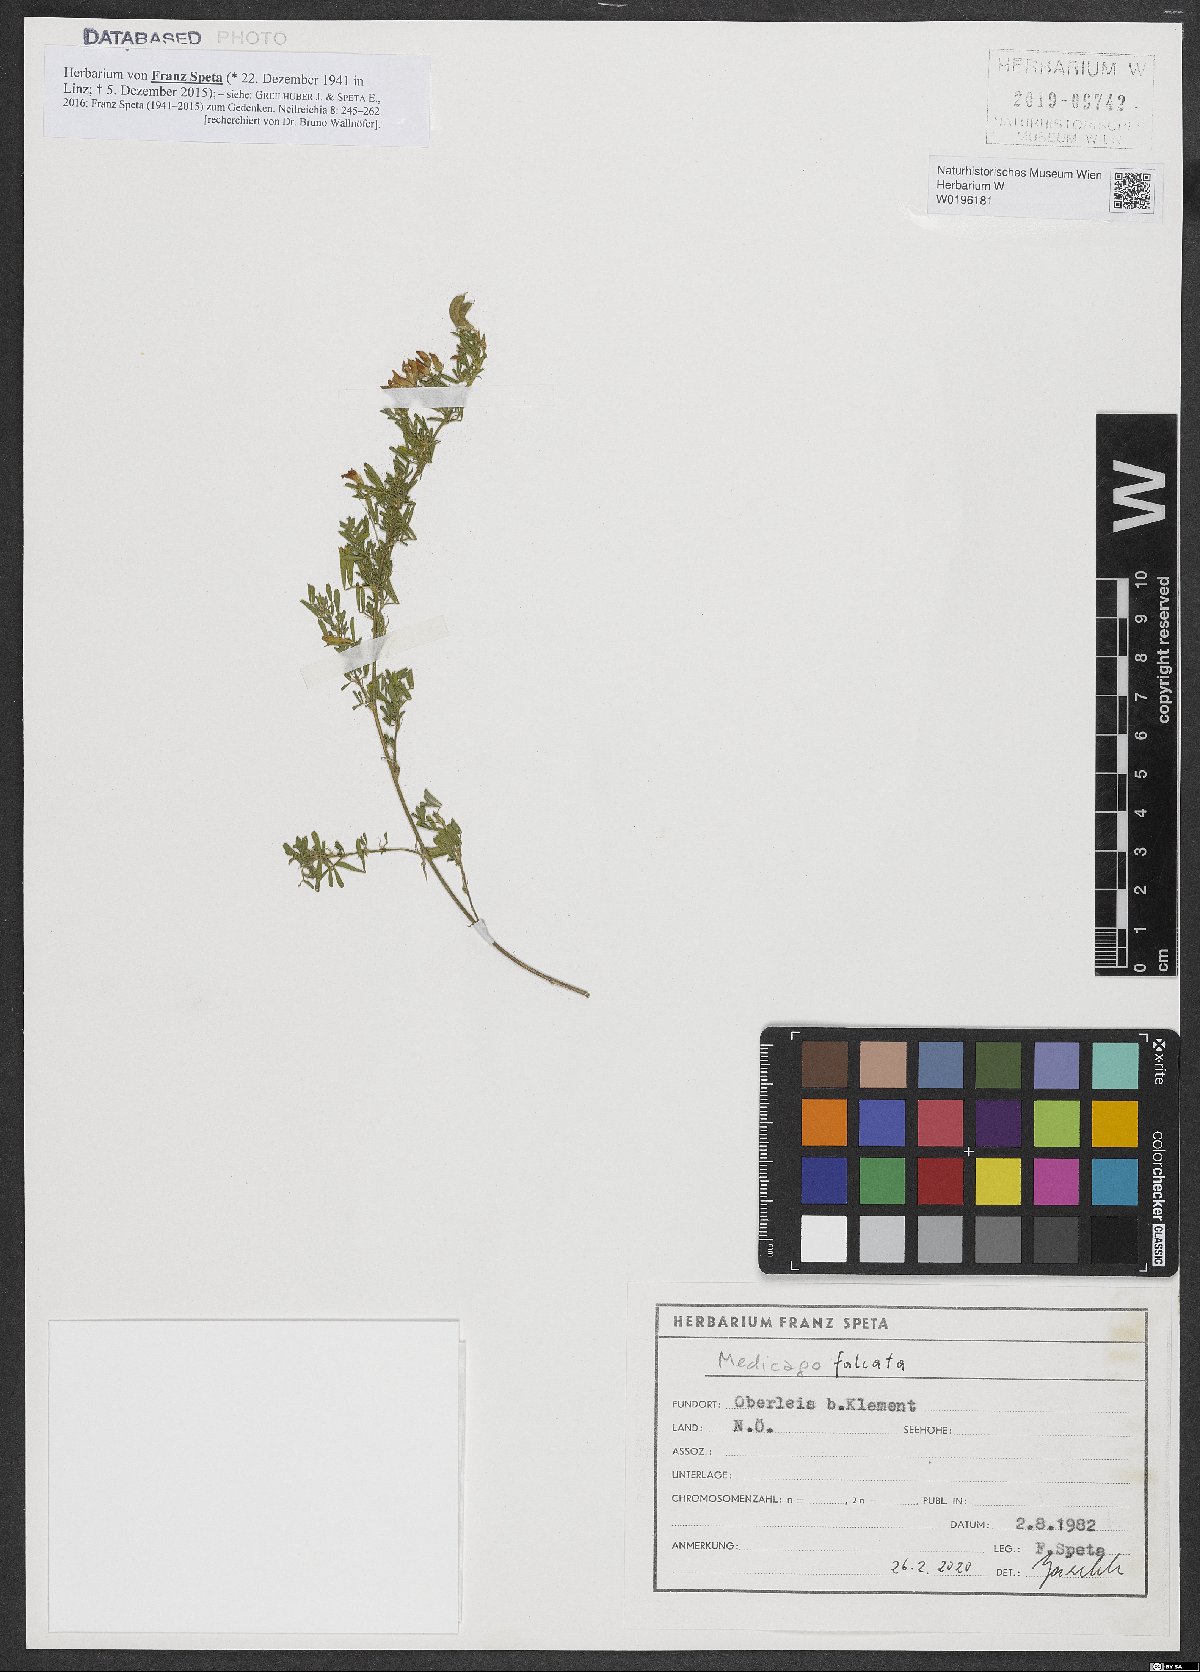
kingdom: Plantae
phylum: Tracheophyta
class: Magnoliopsida
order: Fabales
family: Fabaceae
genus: Medicago
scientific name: Medicago falcata
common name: Sickle medick
